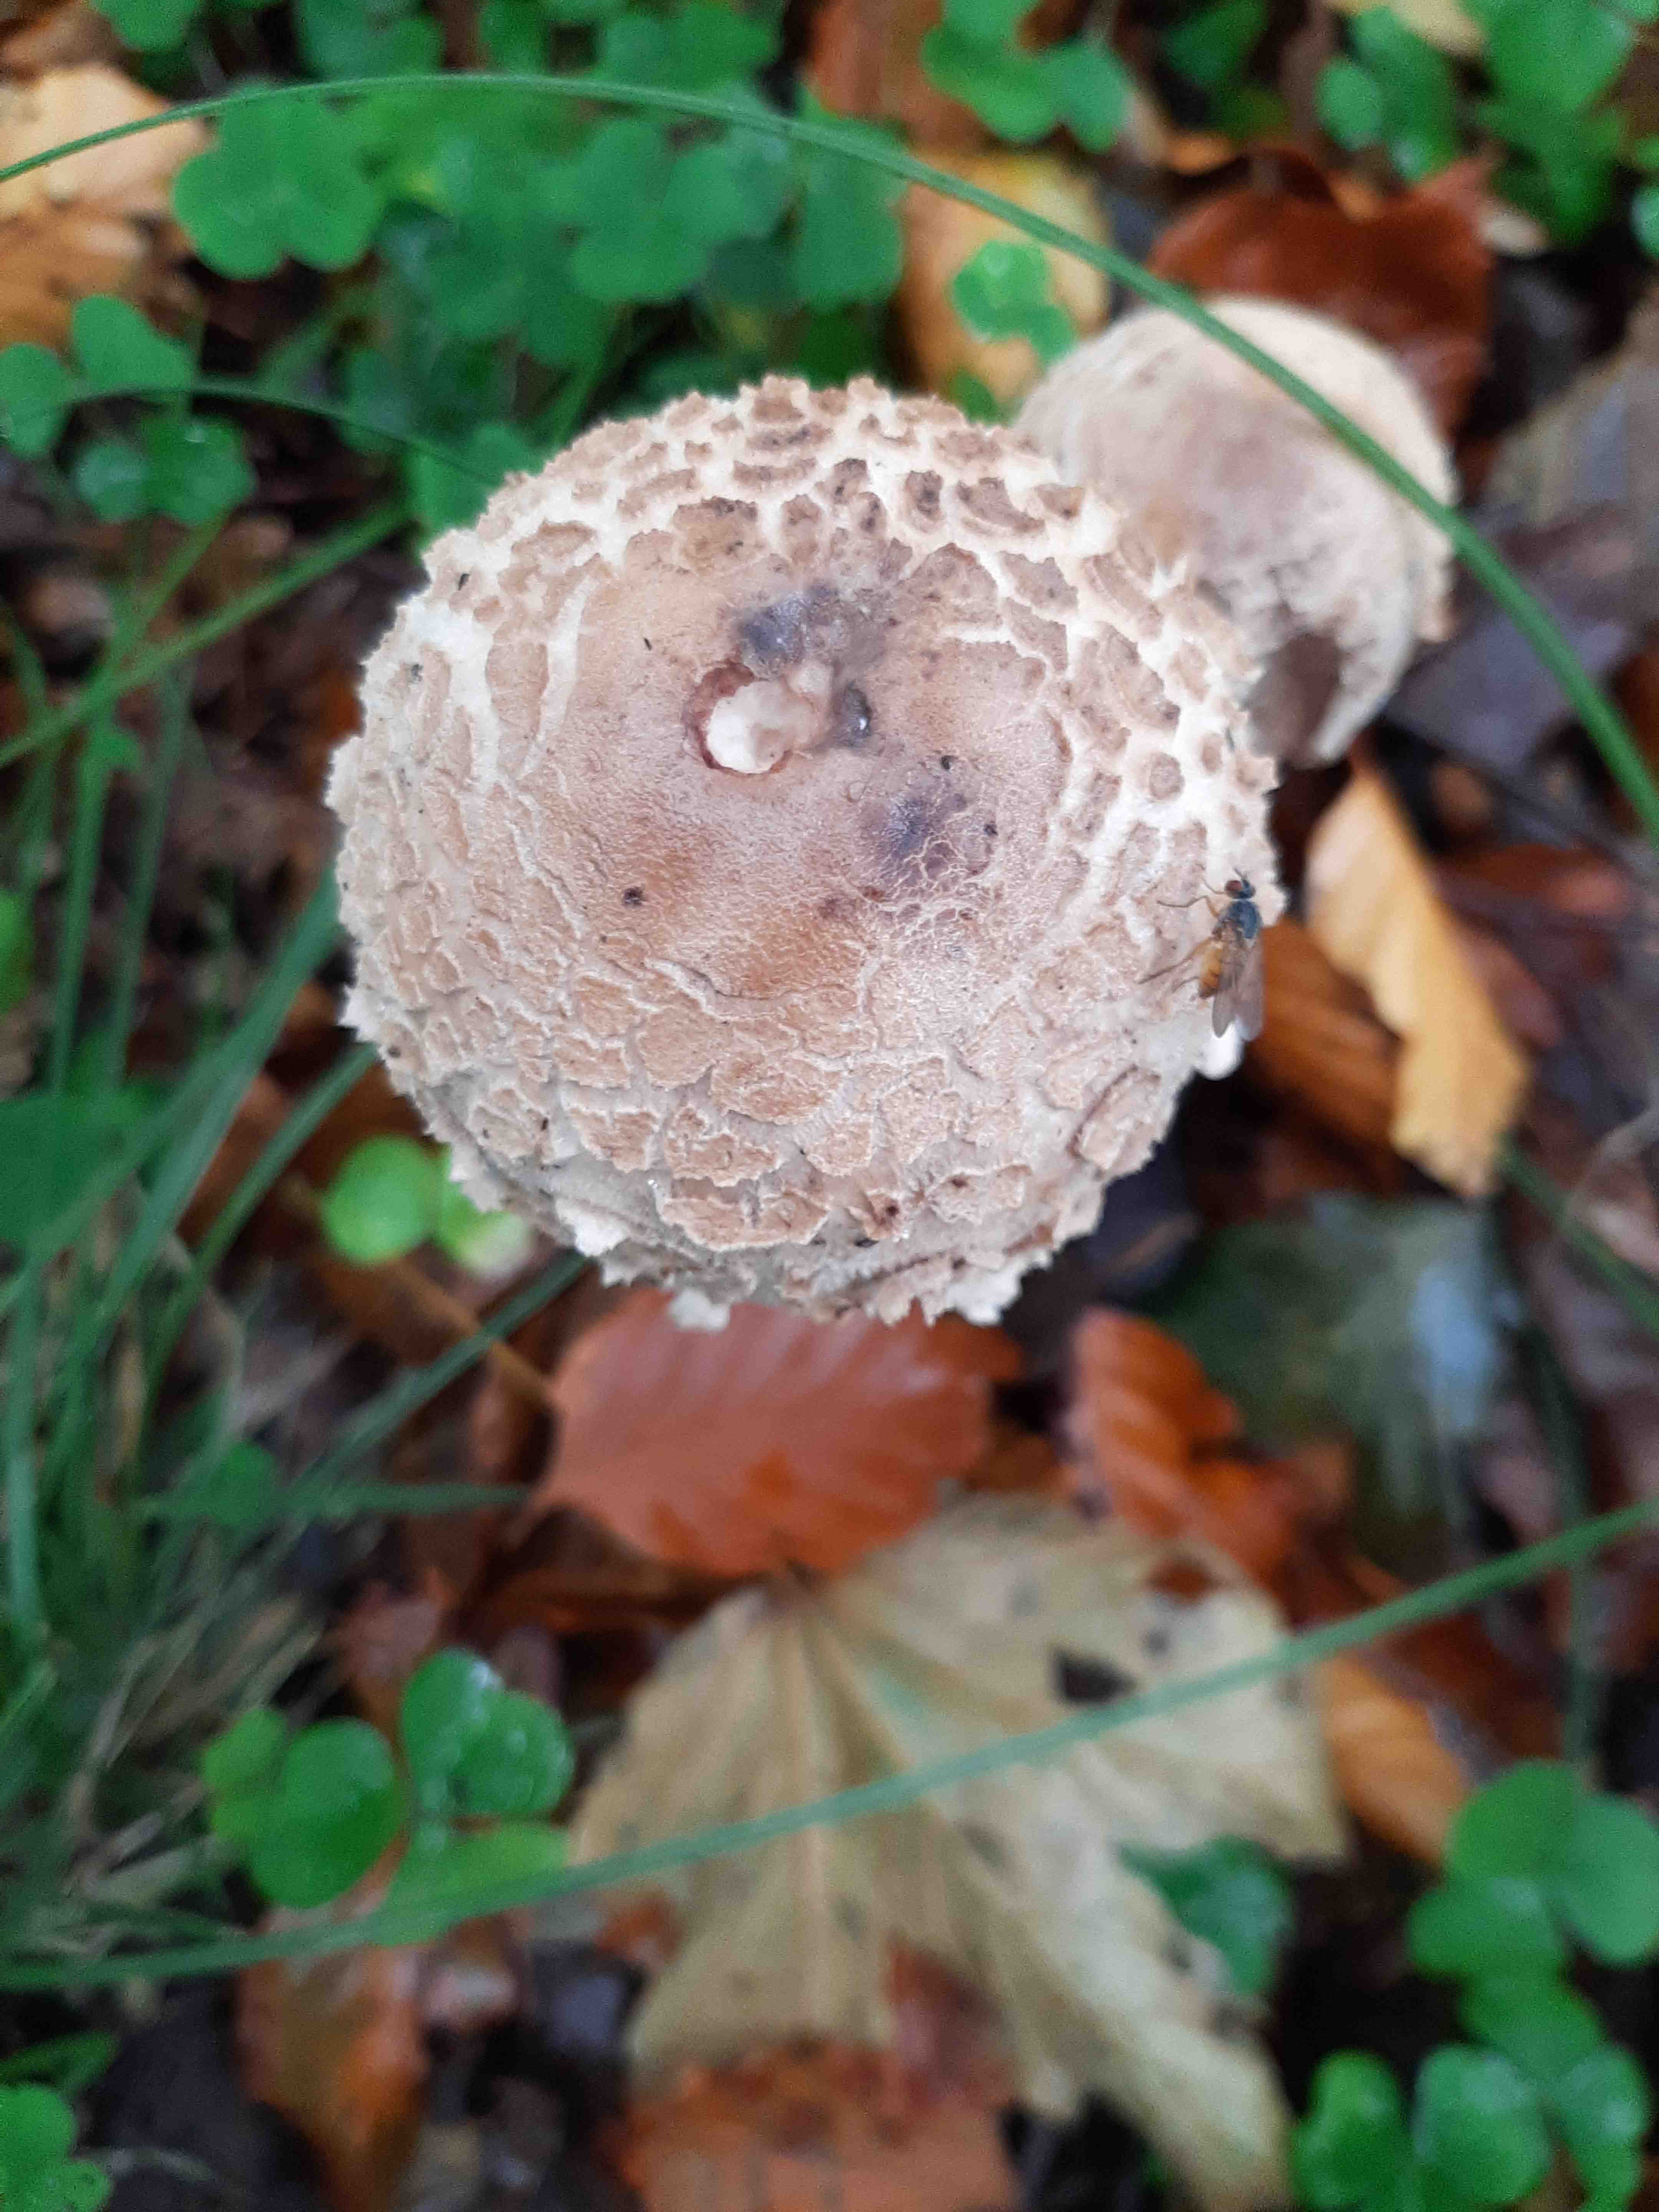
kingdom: Fungi
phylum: Basidiomycota
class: Agaricomycetes
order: Agaricales
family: Agaricaceae
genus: Macrolepiota
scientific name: Macrolepiota
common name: kæmpeparasolhat
